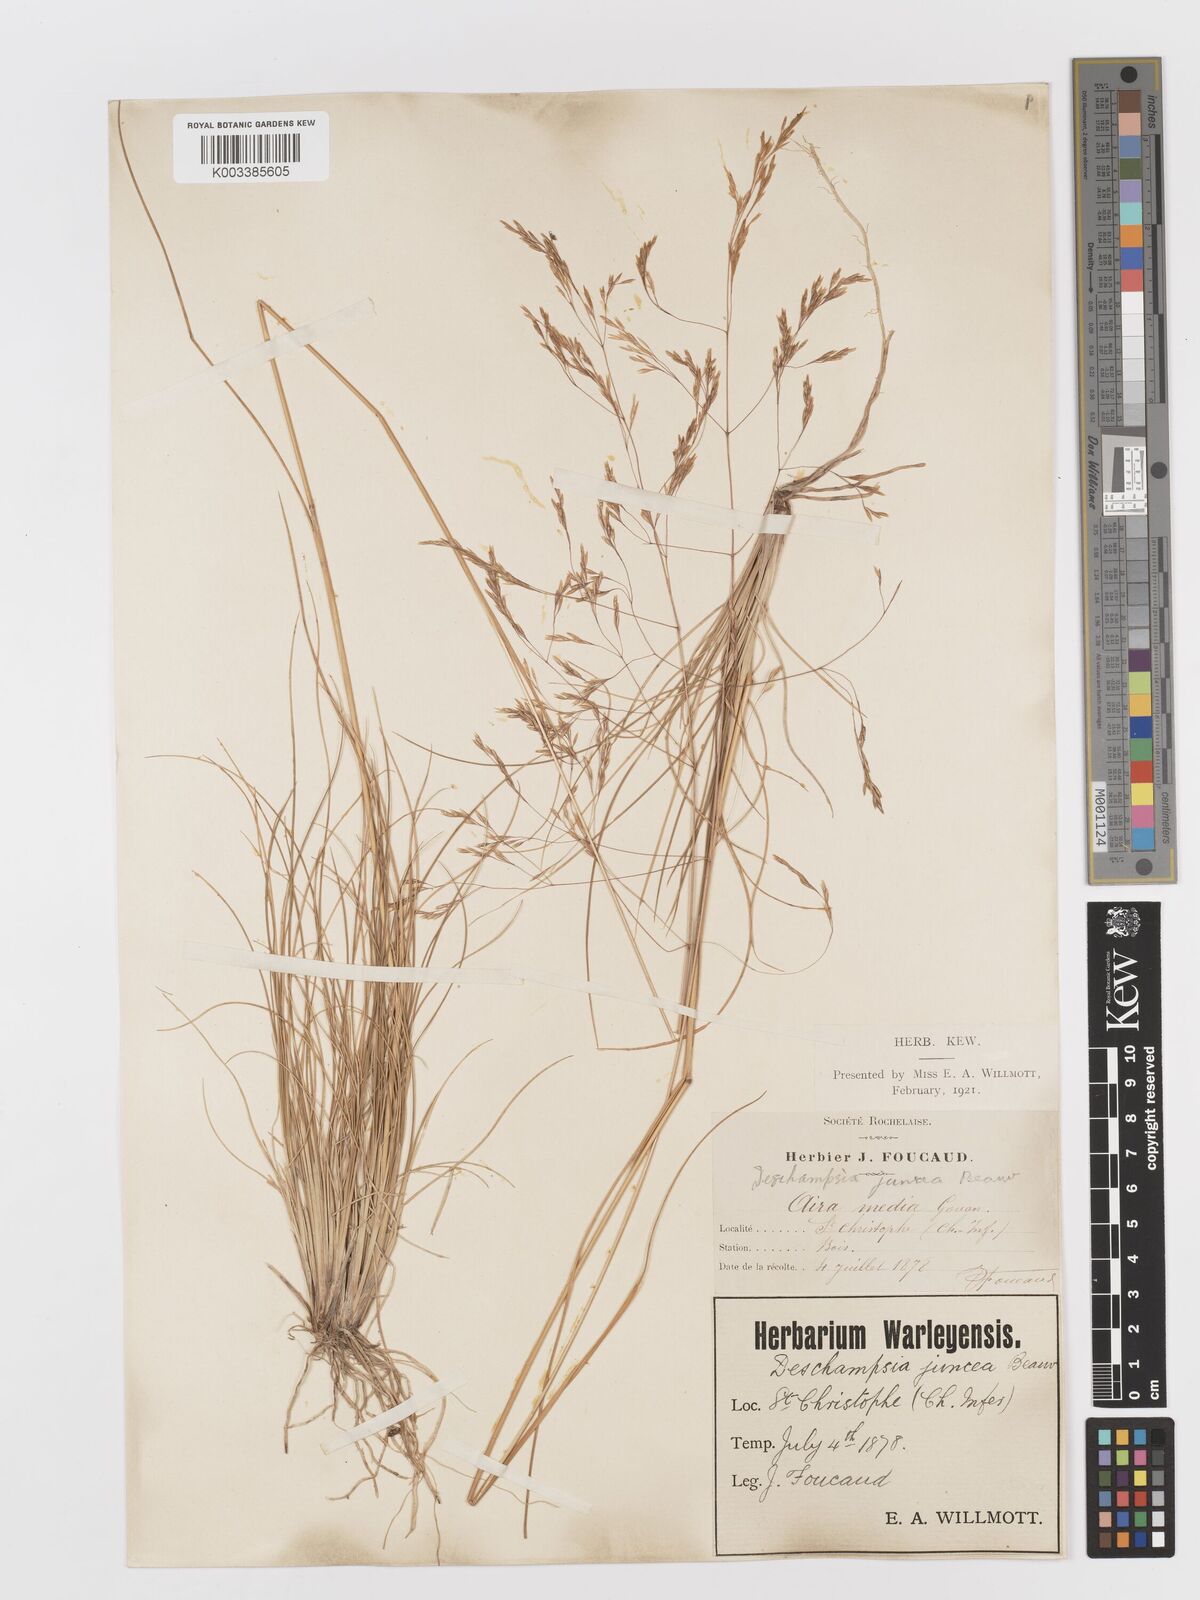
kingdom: Plantae
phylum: Tracheophyta
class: Liliopsida
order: Poales
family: Poaceae
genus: Deschampsia
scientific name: Deschampsia media
